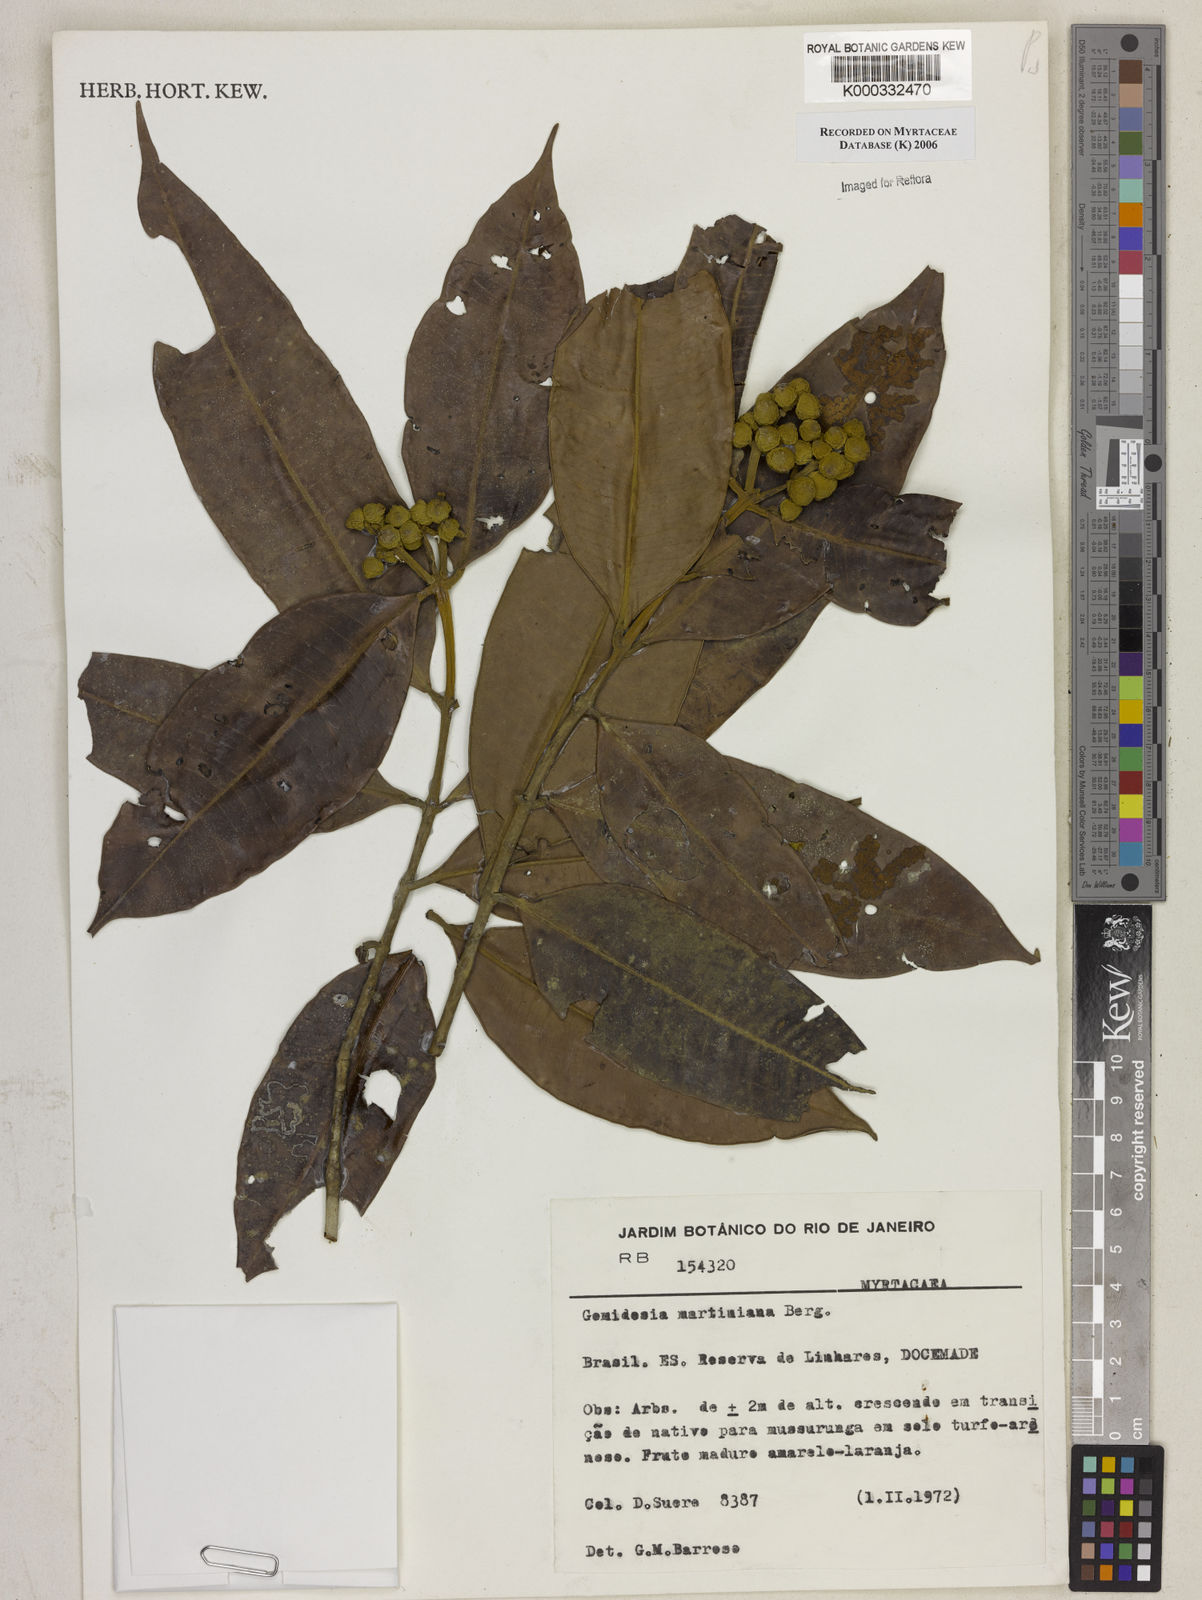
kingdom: Plantae
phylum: Tracheophyta
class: Magnoliopsida
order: Myrtales
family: Myrtaceae
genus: Myrcia
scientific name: Myrcia vittoriana
